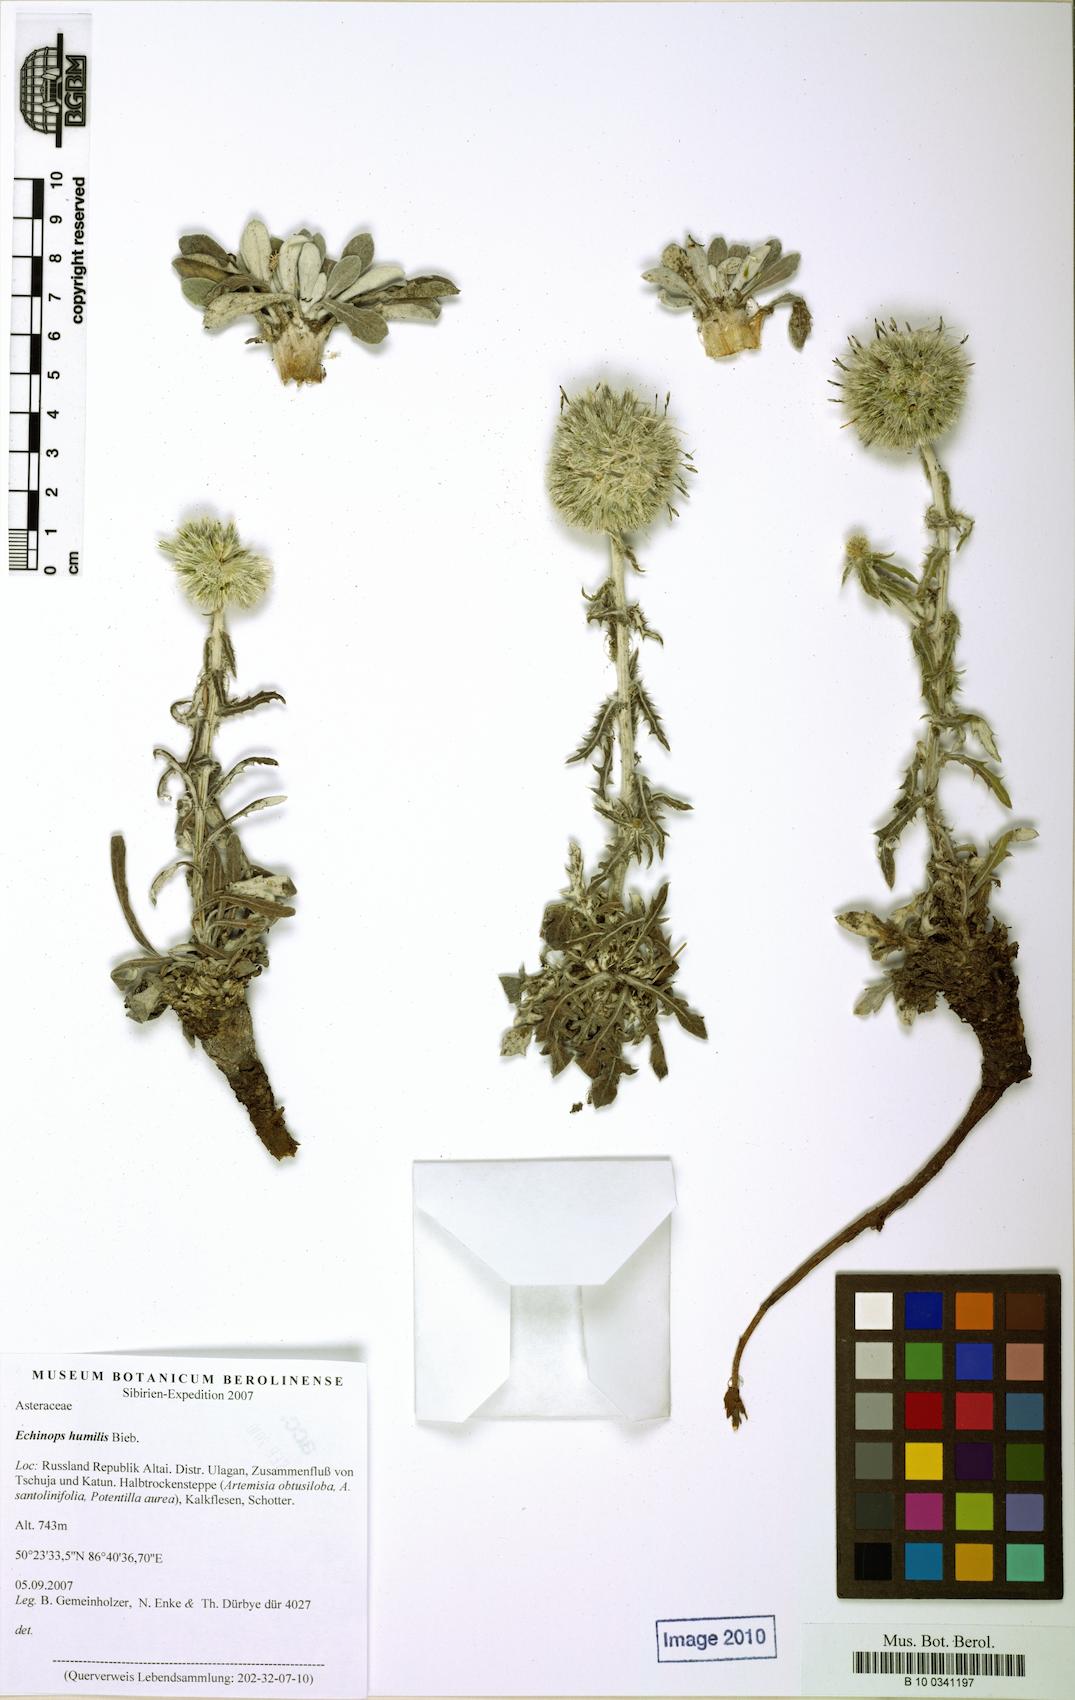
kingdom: Plantae
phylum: Tracheophyta
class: Magnoliopsida
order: Asterales
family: Asteraceae
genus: Echinops
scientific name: Echinops humilis
